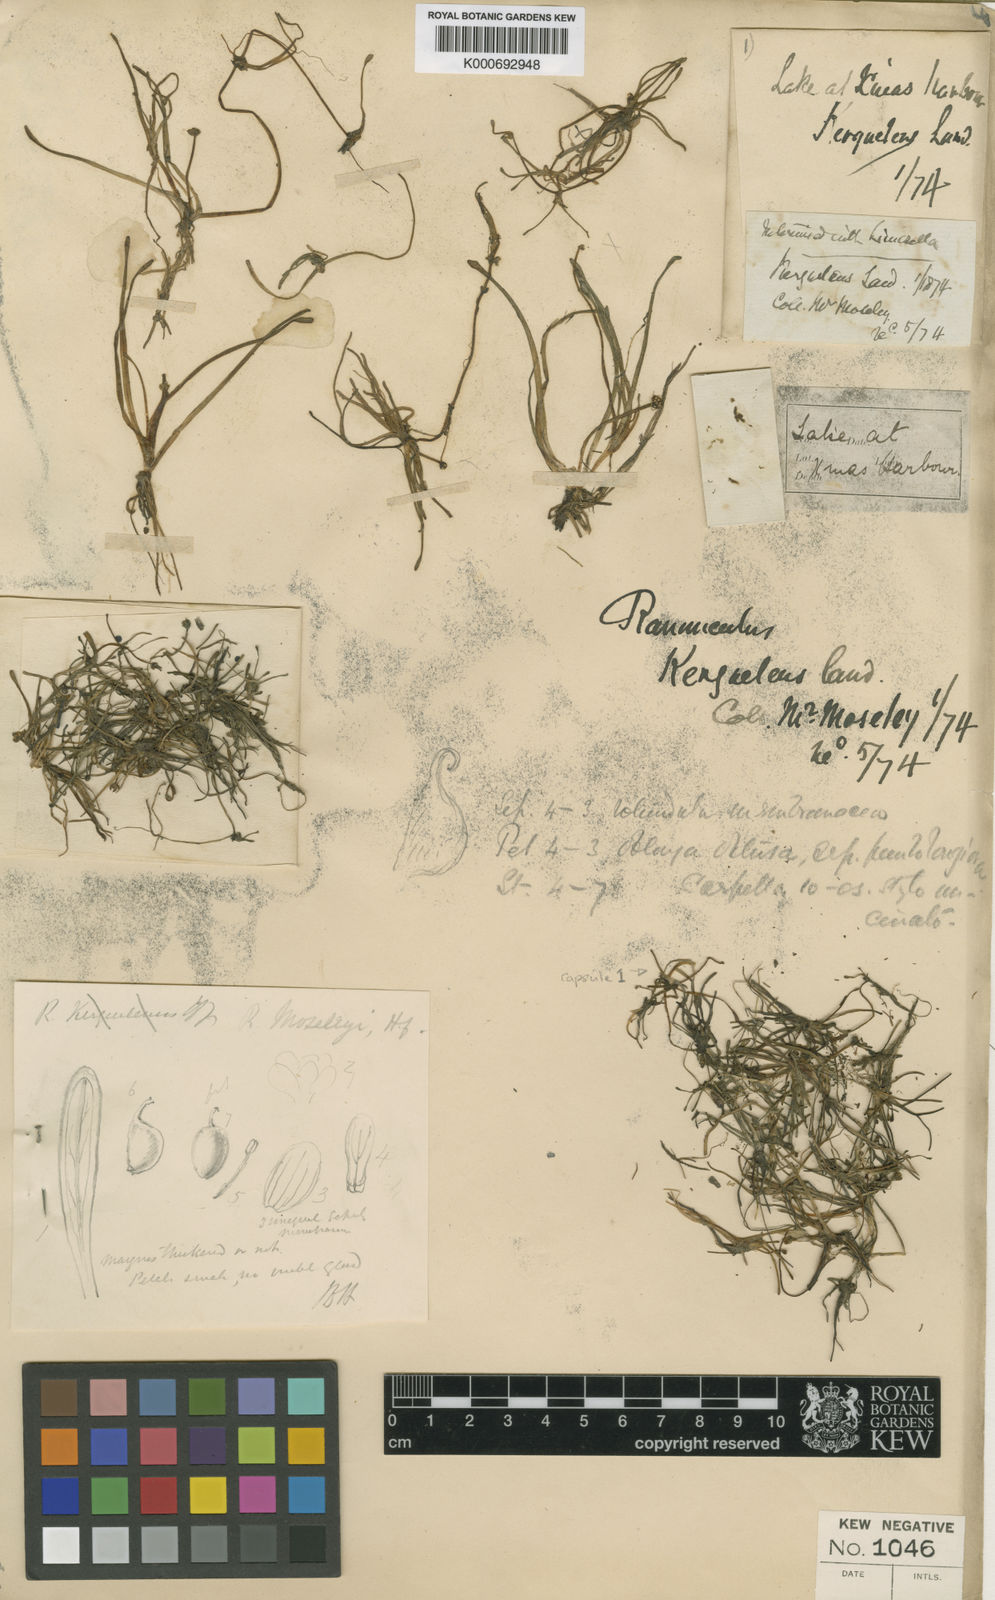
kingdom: Plantae
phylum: Tracheophyta
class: Magnoliopsida
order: Ranunculales
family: Ranunculaceae
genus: Ranunculus
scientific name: Ranunculus moseleyi
